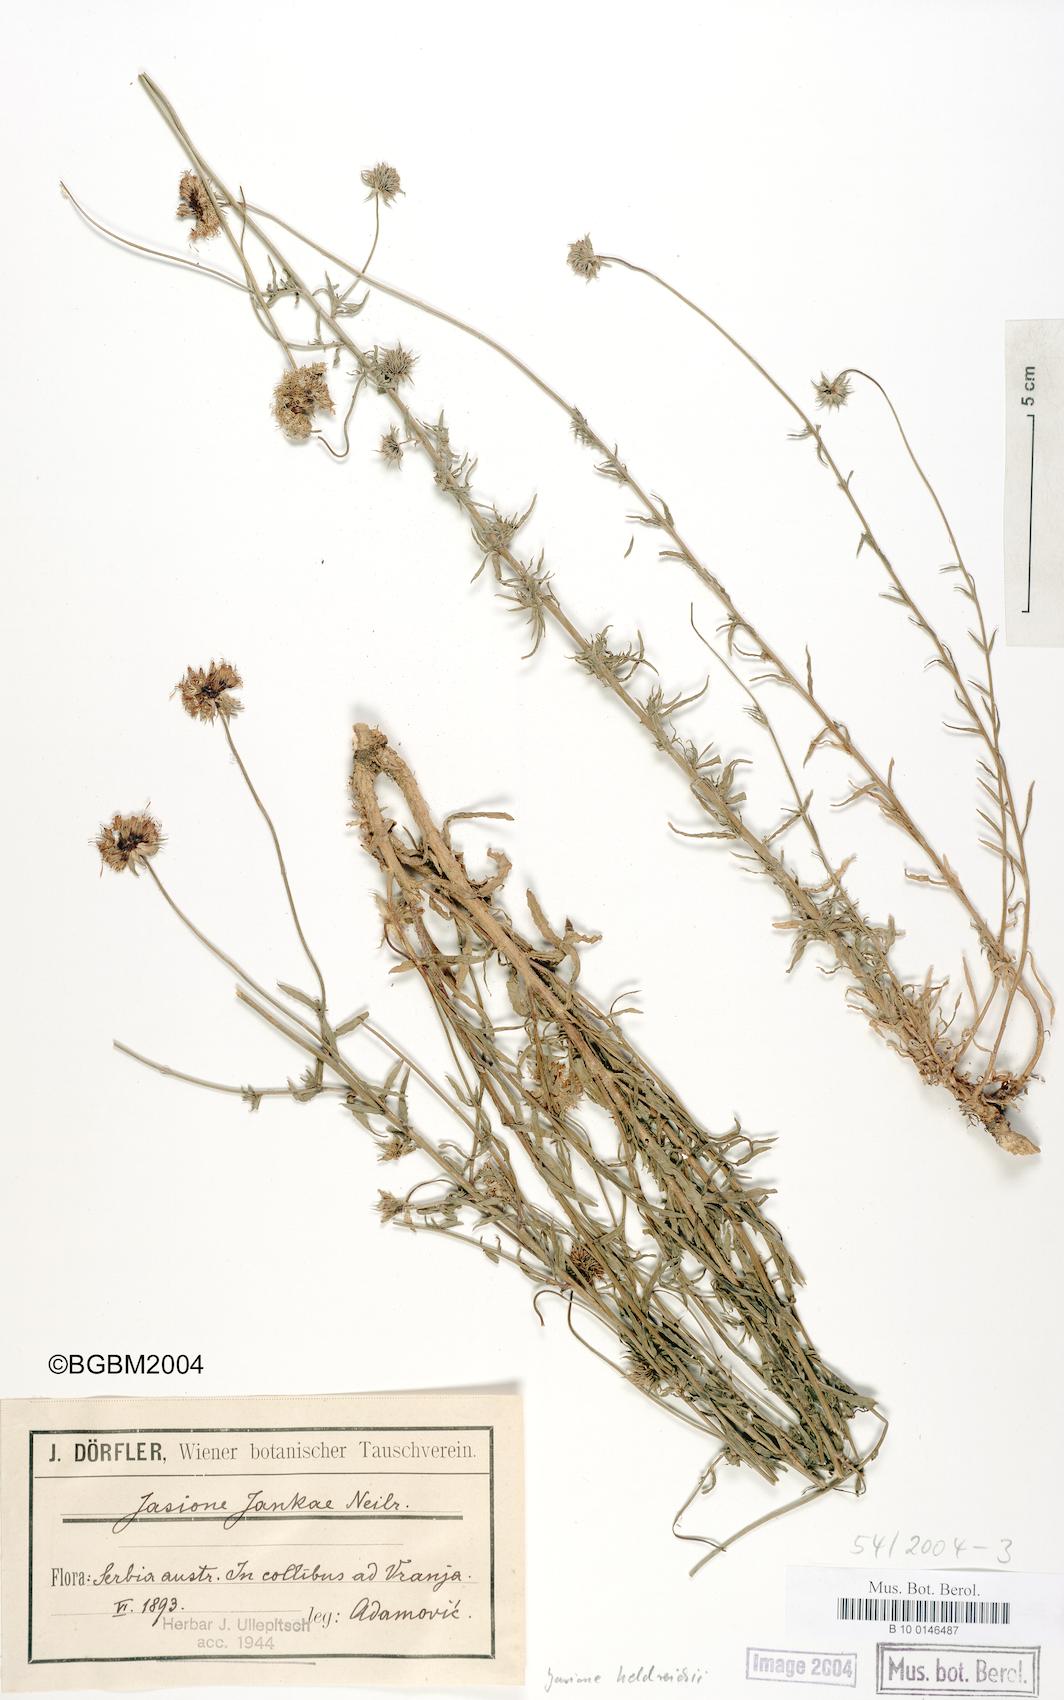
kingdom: Plantae
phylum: Tracheophyta
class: Magnoliopsida
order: Asterales
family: Campanulaceae
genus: Jasione
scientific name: Jasione heldreichii
